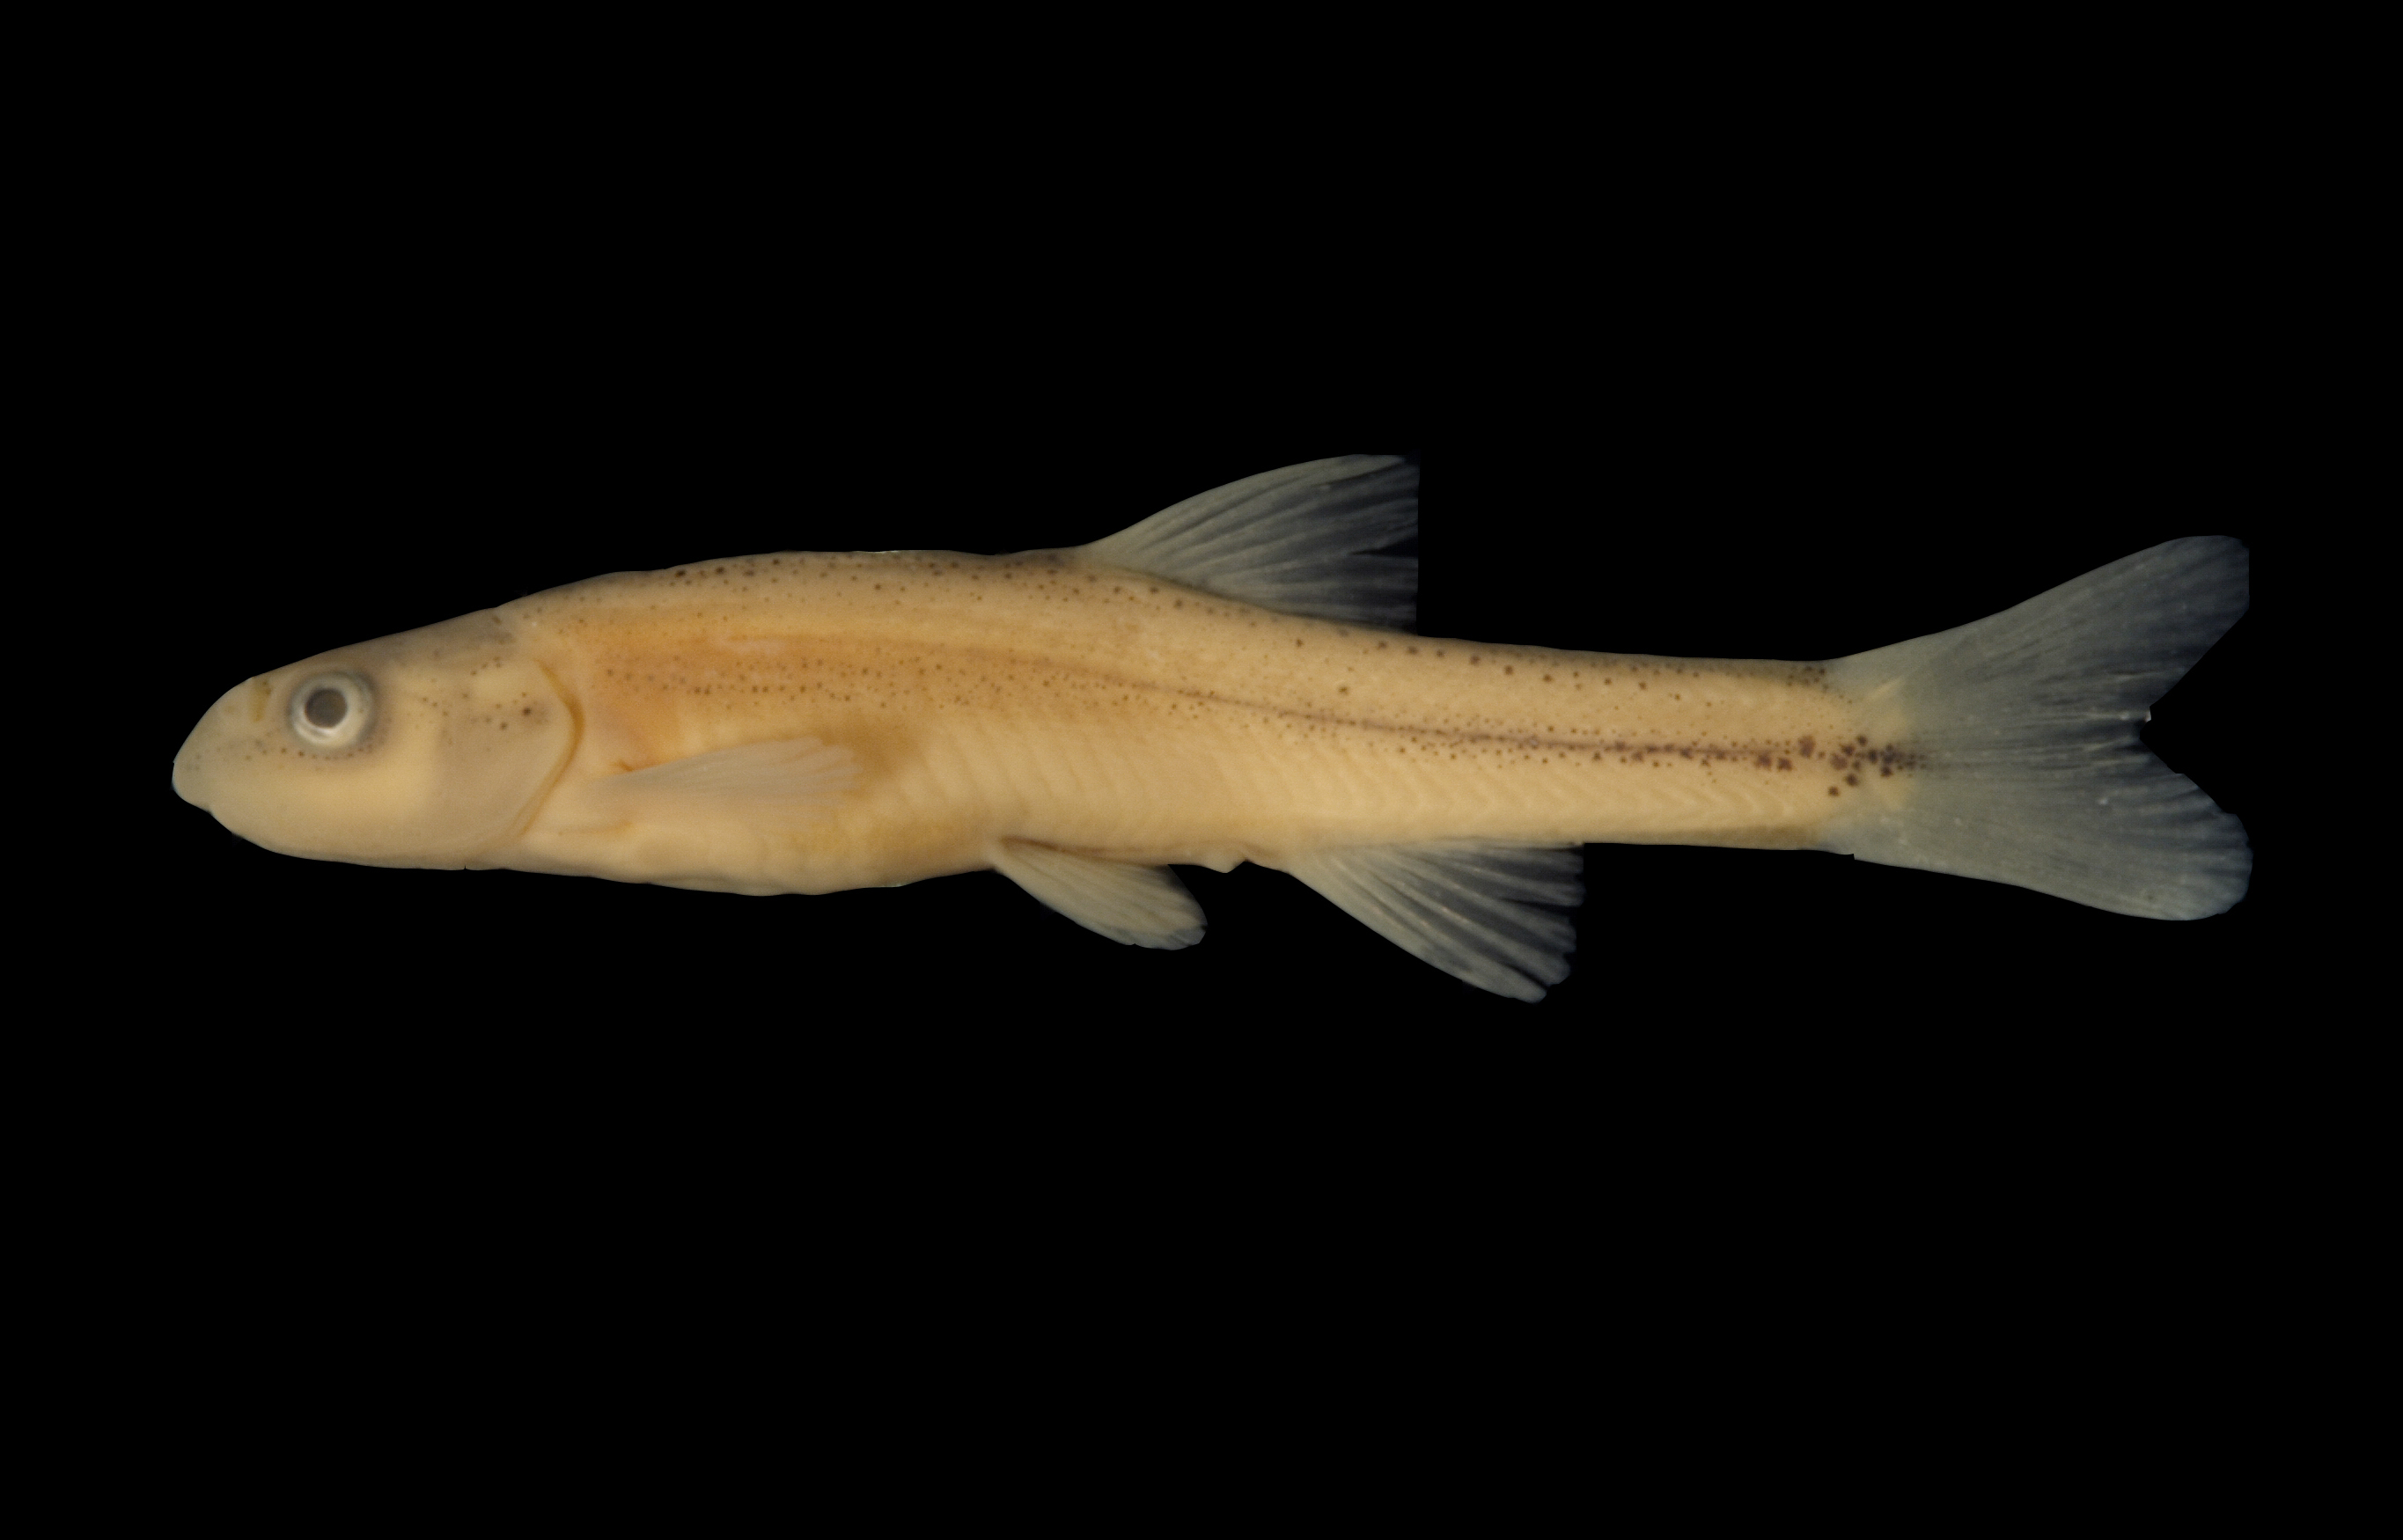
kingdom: Animalia
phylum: Chordata
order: Cypriniformes
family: Cyprinidae
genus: Rhinichthys
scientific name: Rhinichthys cataractae
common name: Longnose dace
